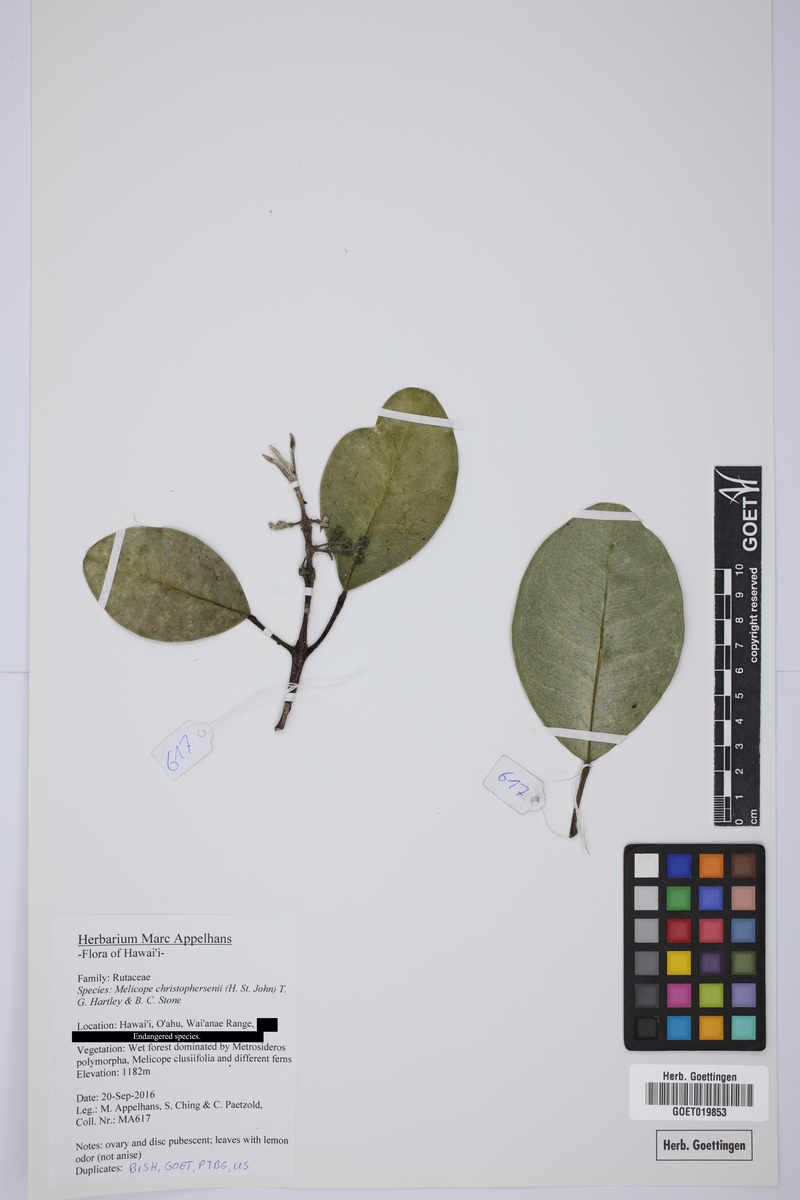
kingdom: Plantae
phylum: Tracheophyta
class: Magnoliopsida
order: Sapindales
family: Rutaceae
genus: Melicope
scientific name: Melicope christophersenii
